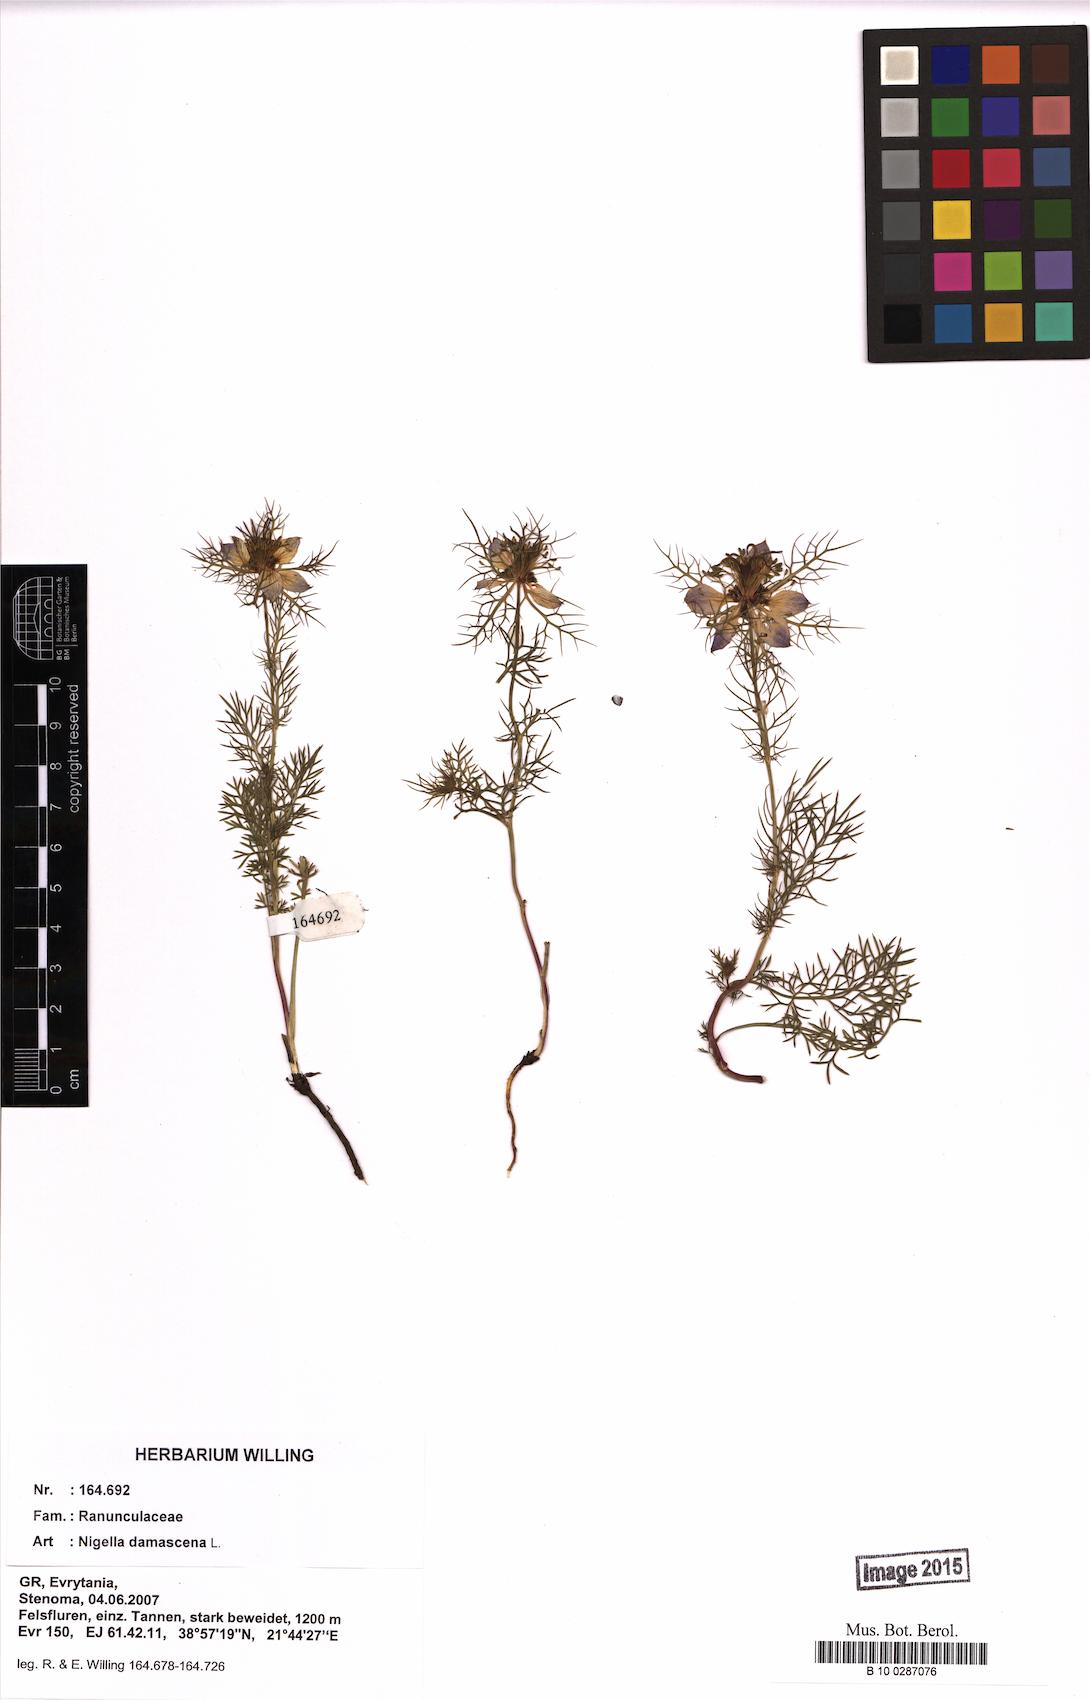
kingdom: Plantae
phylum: Tracheophyta
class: Magnoliopsida
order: Ranunculales
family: Ranunculaceae
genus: Nigella
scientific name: Nigella damascena
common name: Love-in-a-mist
